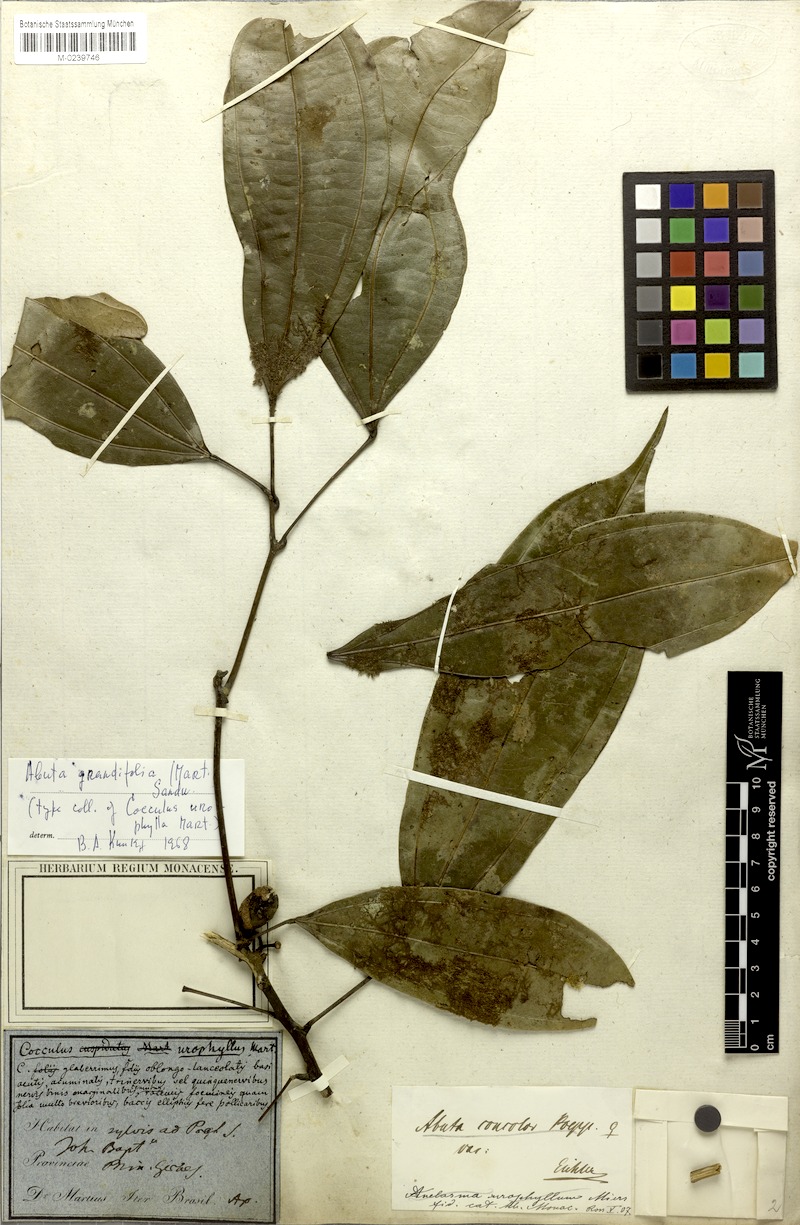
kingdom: Plantae
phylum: Tracheophyta
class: Magnoliopsida
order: Ranunculales
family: Menispermaceae
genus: Abuta
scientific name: Abuta grandifolia
